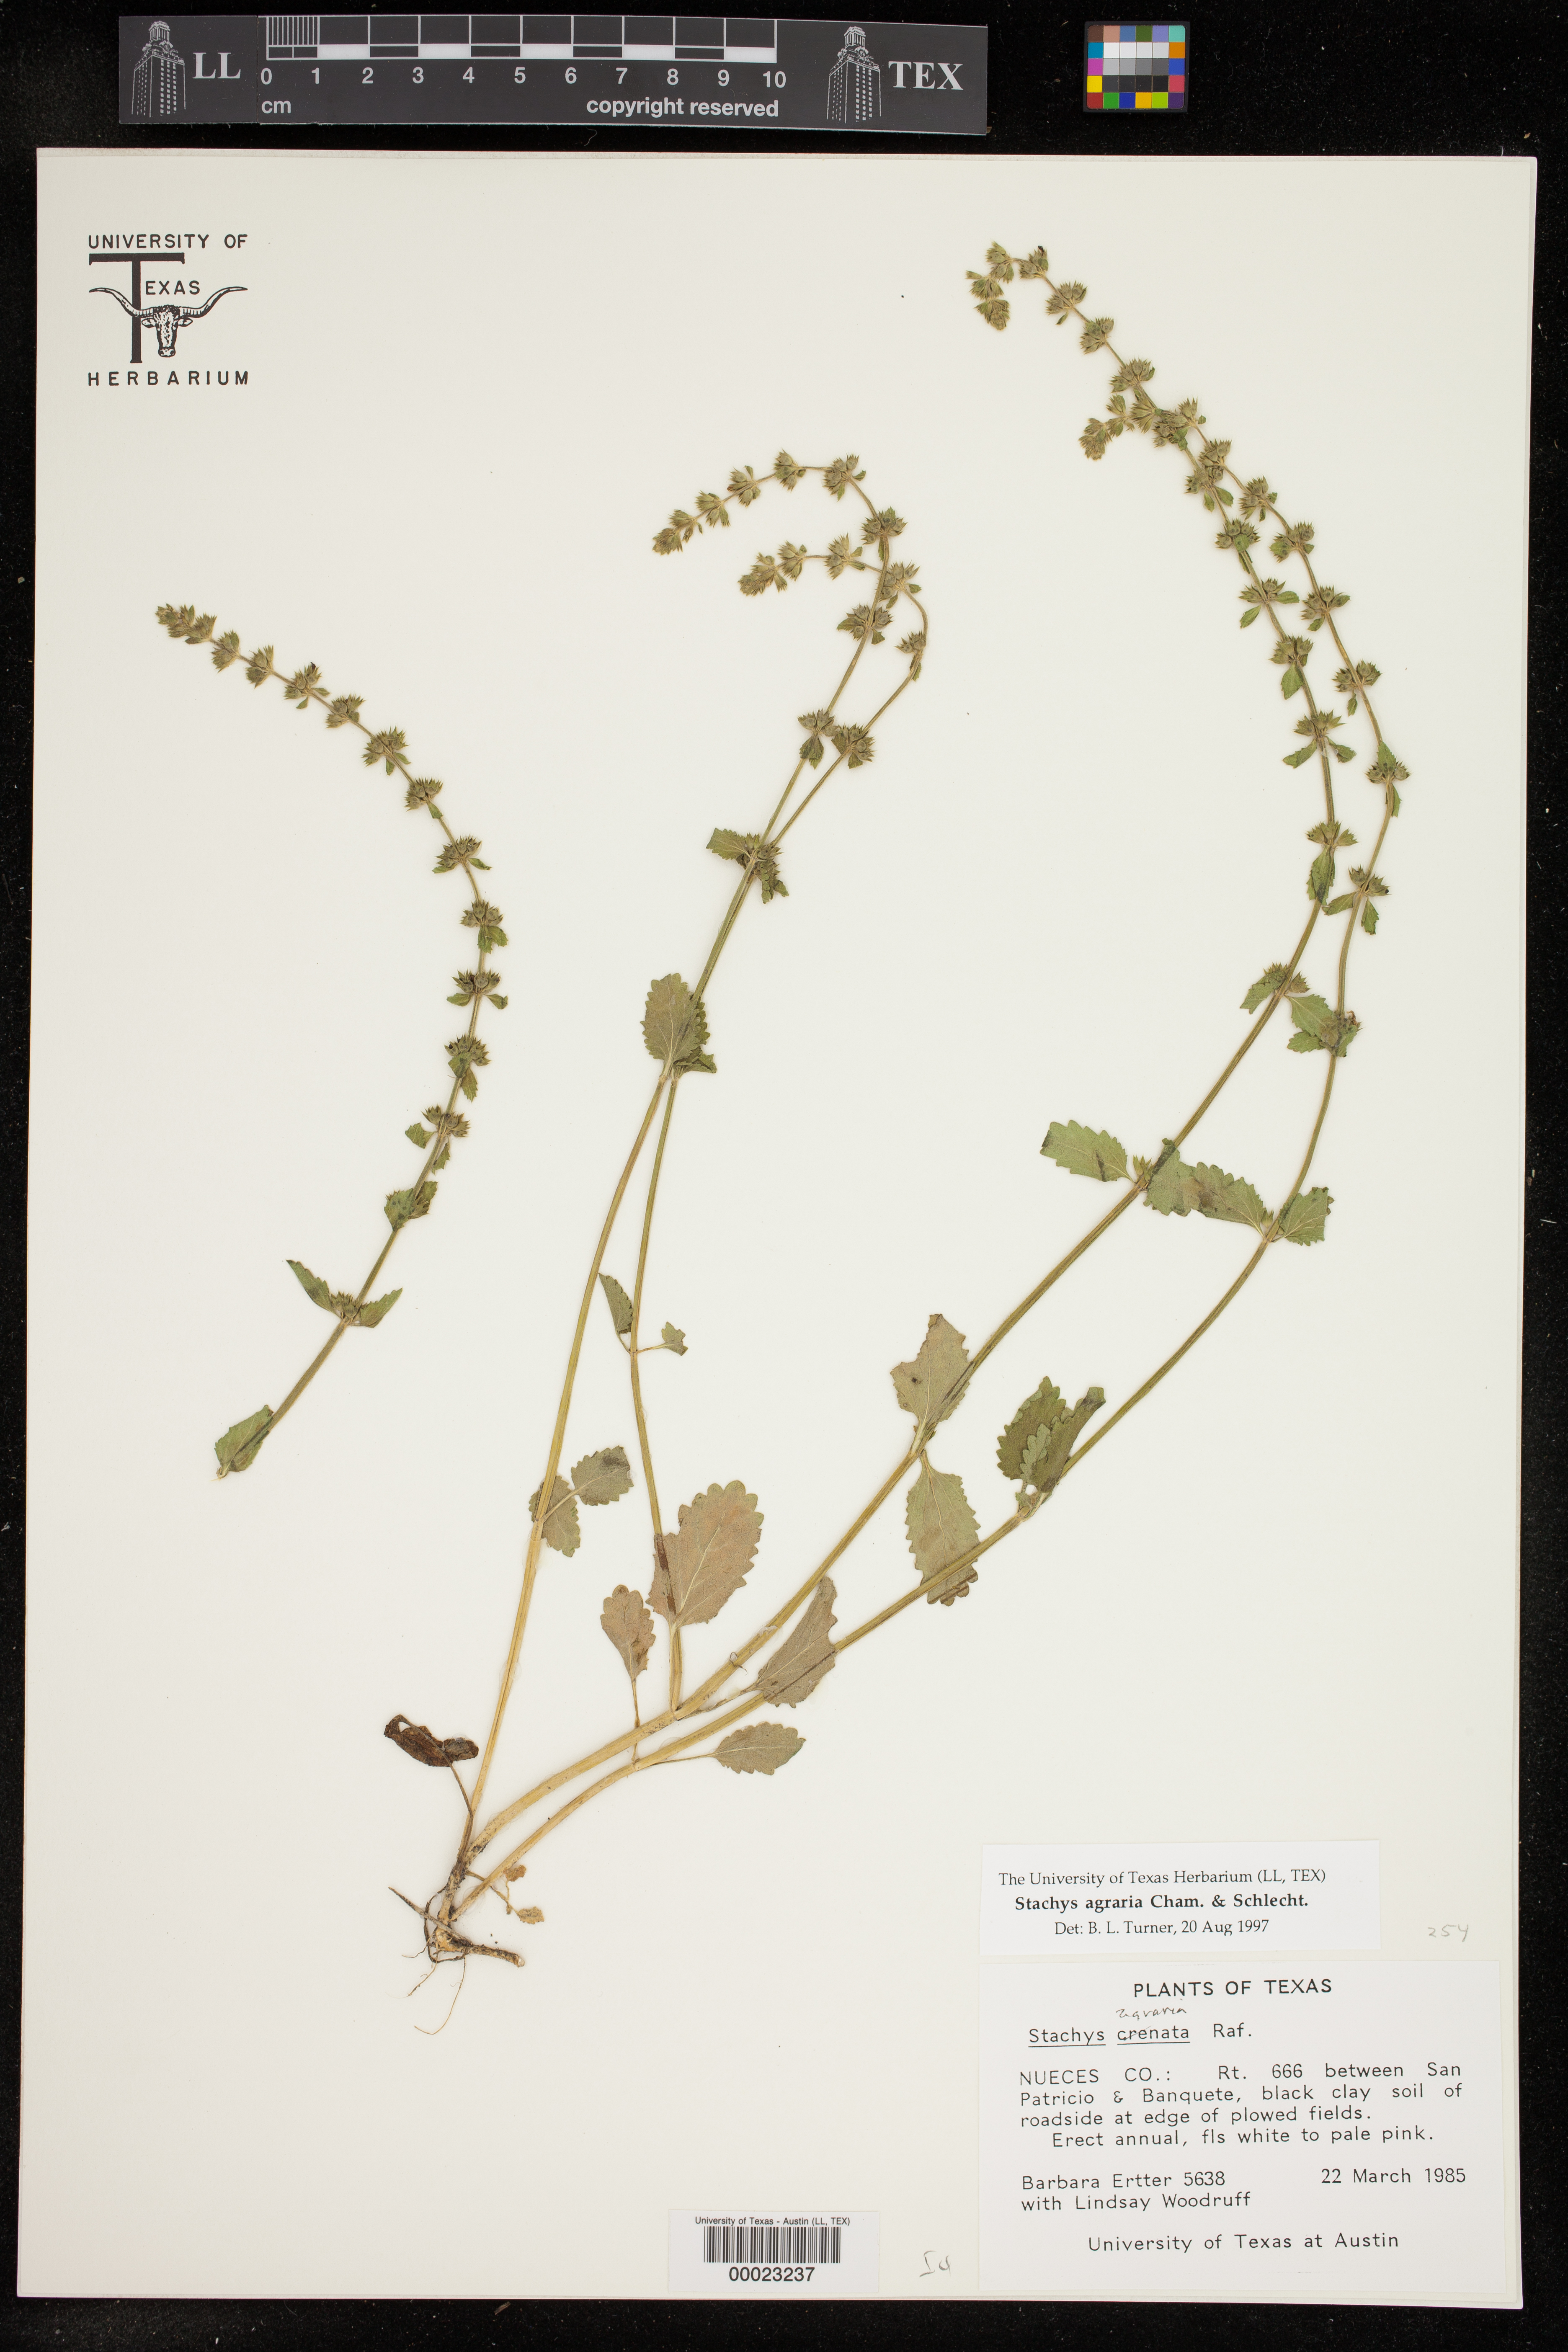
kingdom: Plantae
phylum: Tracheophyta
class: Magnoliopsida
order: Lamiales
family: Lamiaceae
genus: Stachys
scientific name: Stachys agraria
